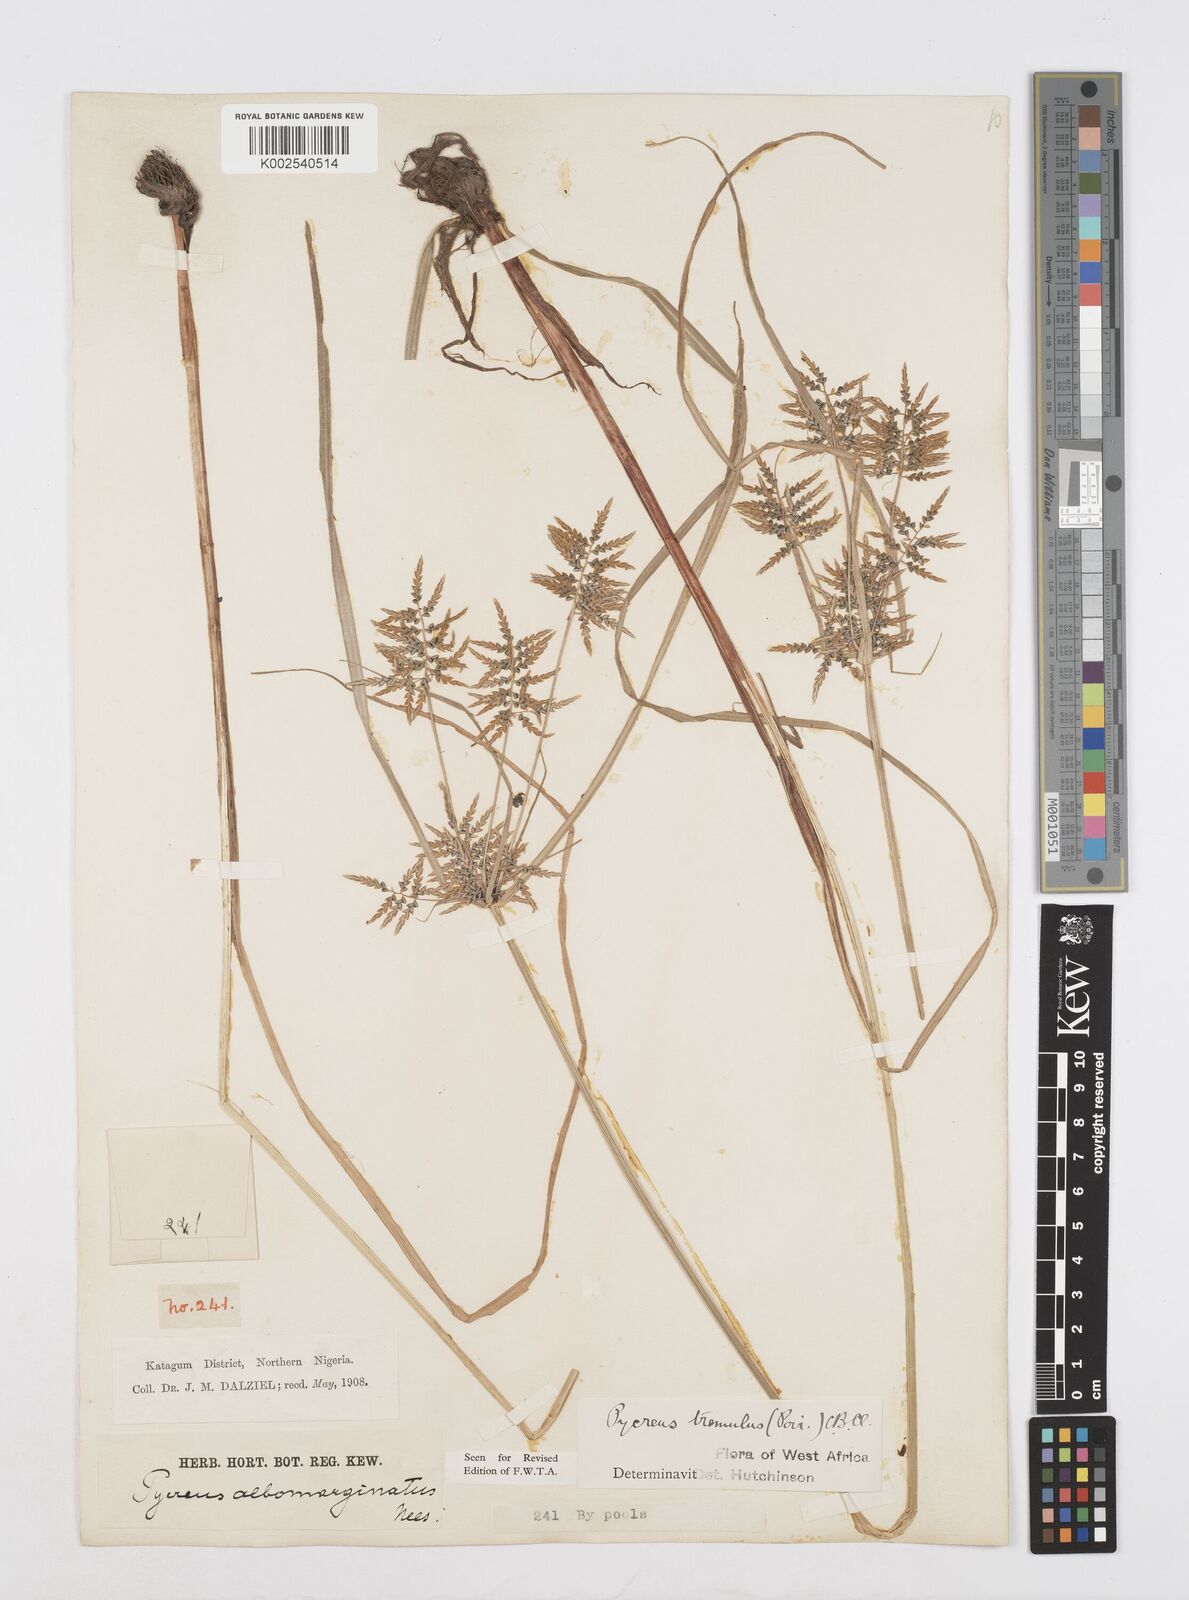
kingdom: Plantae
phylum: Tracheophyta
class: Liliopsida
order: Poales
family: Cyperaceae
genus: Cyperus
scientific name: Cyperus macrostachyos
